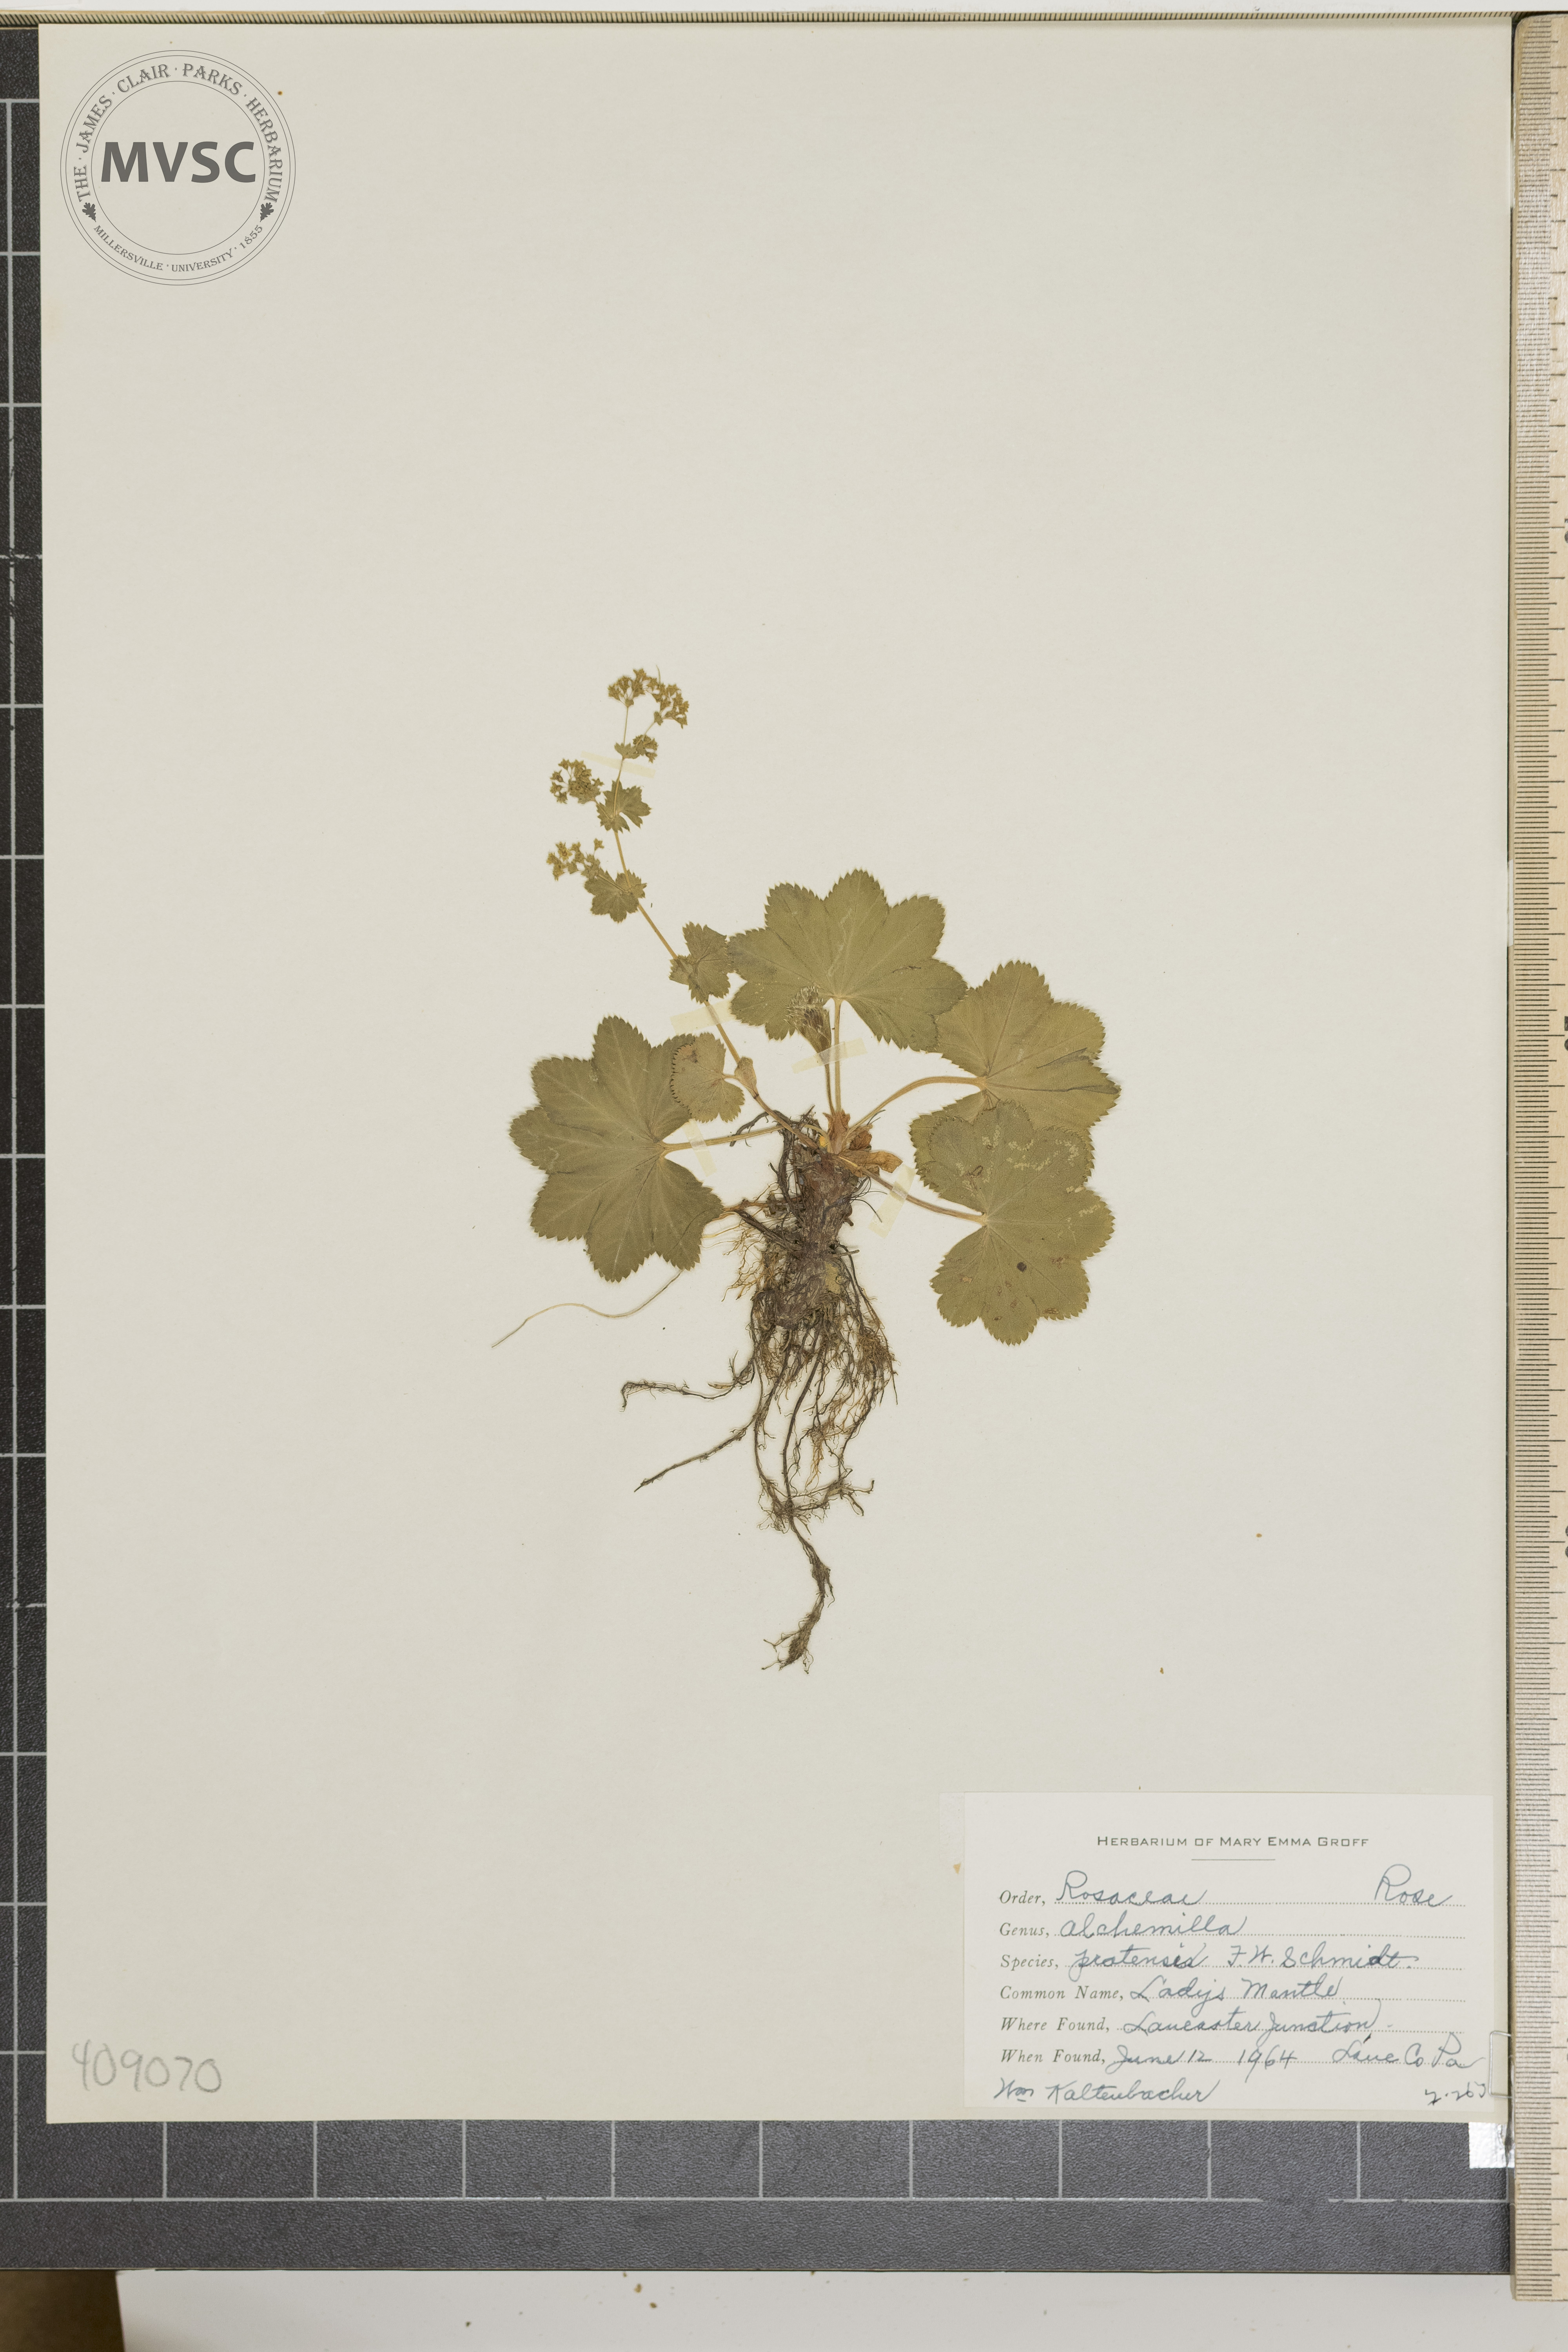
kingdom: Plantae
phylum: Tracheophyta
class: Magnoliopsida
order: Rosales
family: Rosaceae
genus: Alchemilla
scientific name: Alchemilla pratensis
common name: Lady's Mantle
